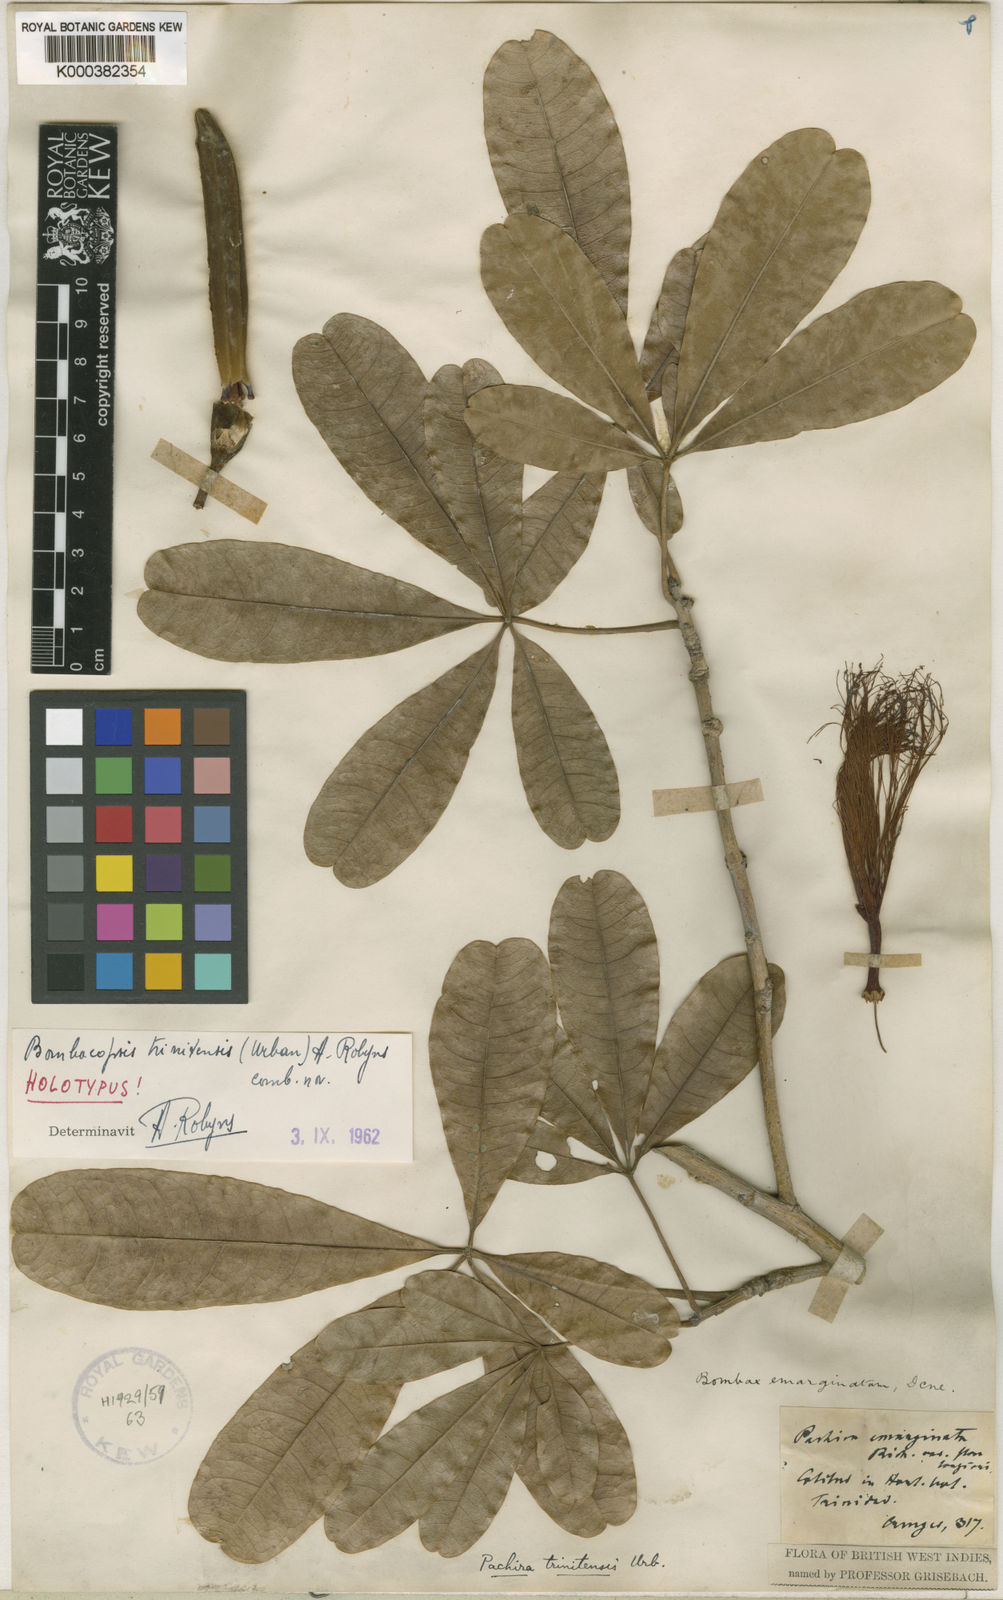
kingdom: Plantae
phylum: Tracheophyta
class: Magnoliopsida
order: Malvales
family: Malvaceae
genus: Pachira
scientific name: Pachira trinitensis
